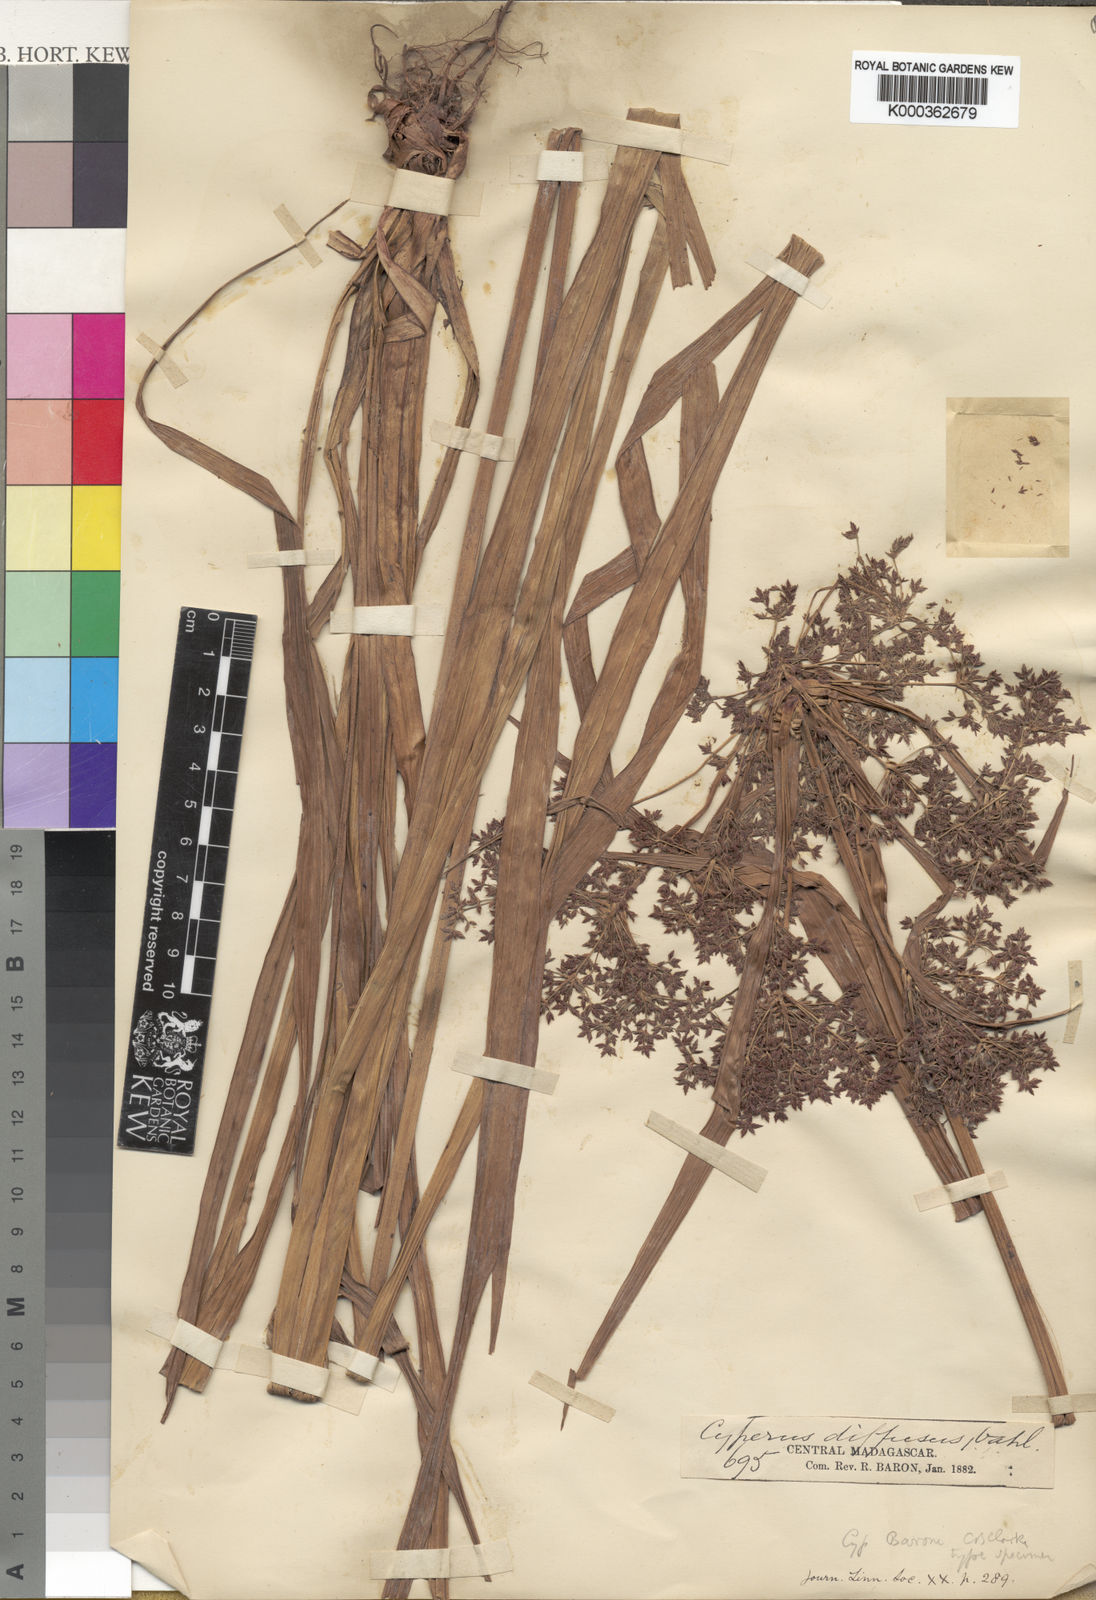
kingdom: Plantae
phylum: Tracheophyta
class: Liliopsida
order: Poales
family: Cyperaceae
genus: Cyperus
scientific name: Cyperus baronii
